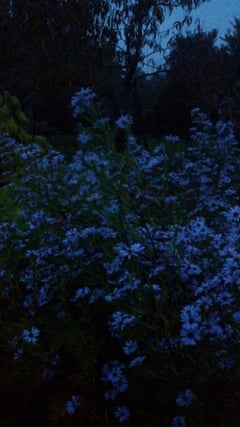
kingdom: Animalia
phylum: Arthropoda
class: Insecta
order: Orthoptera
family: Gryllidae
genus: Gryllus
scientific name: Gryllus
